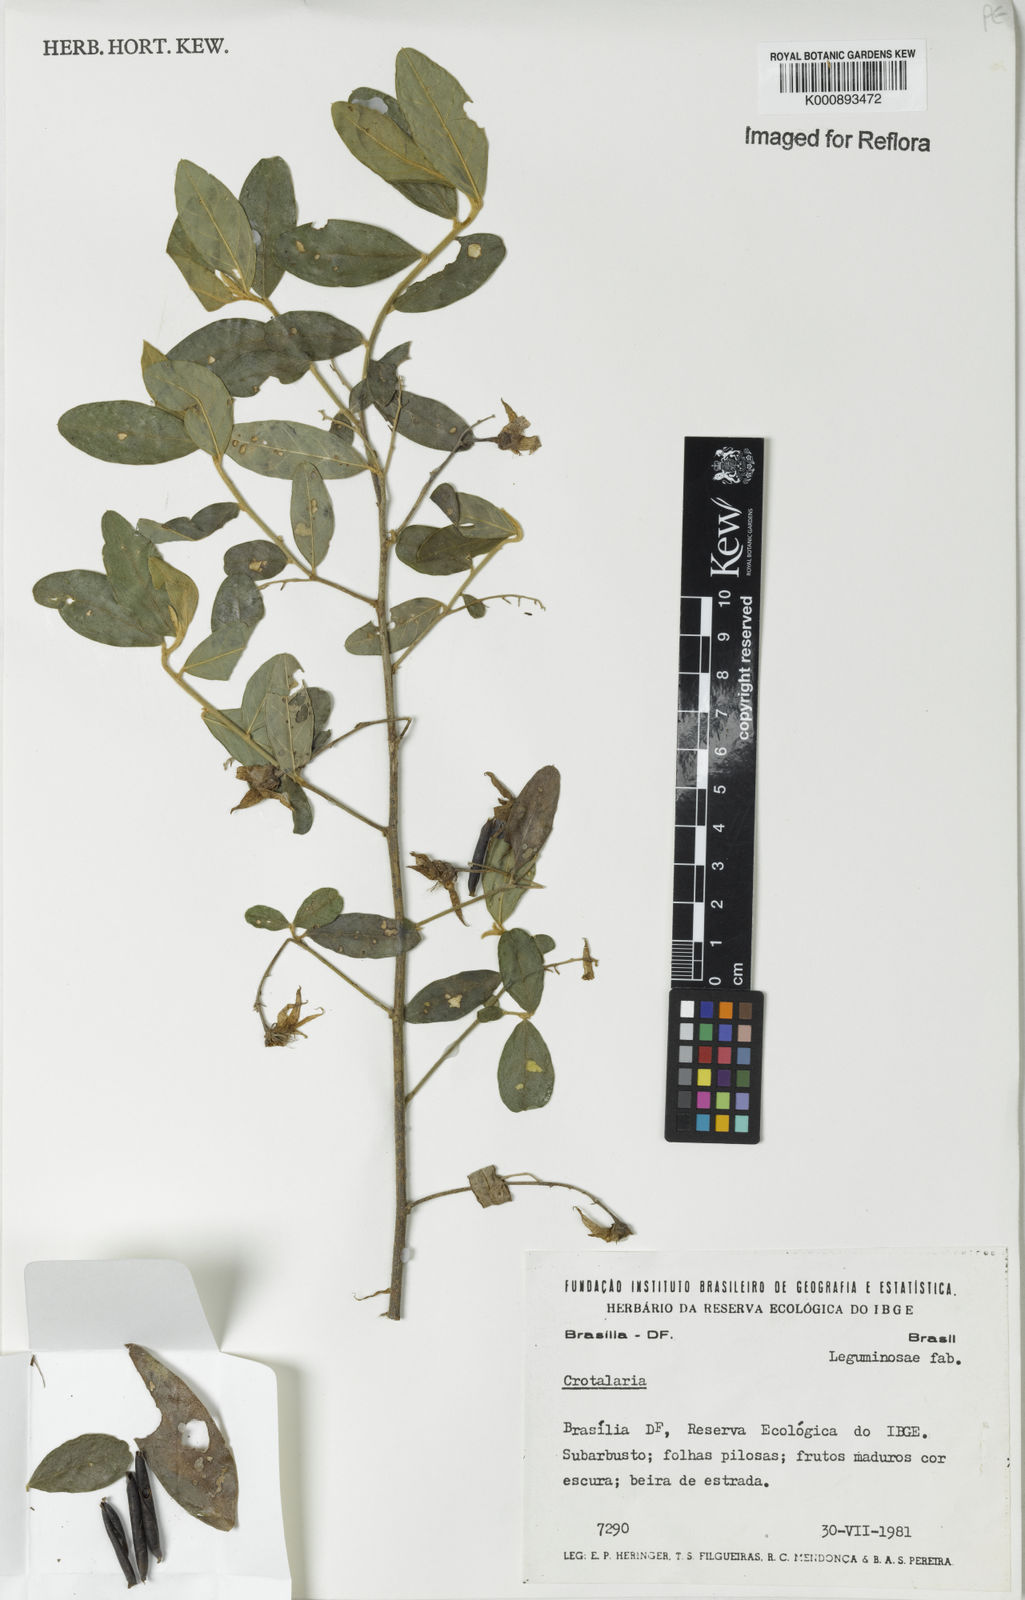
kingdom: Plantae
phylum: Tracheophyta
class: Magnoliopsida
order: Fabales
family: Fabaceae
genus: Crotalaria
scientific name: Crotalaria
